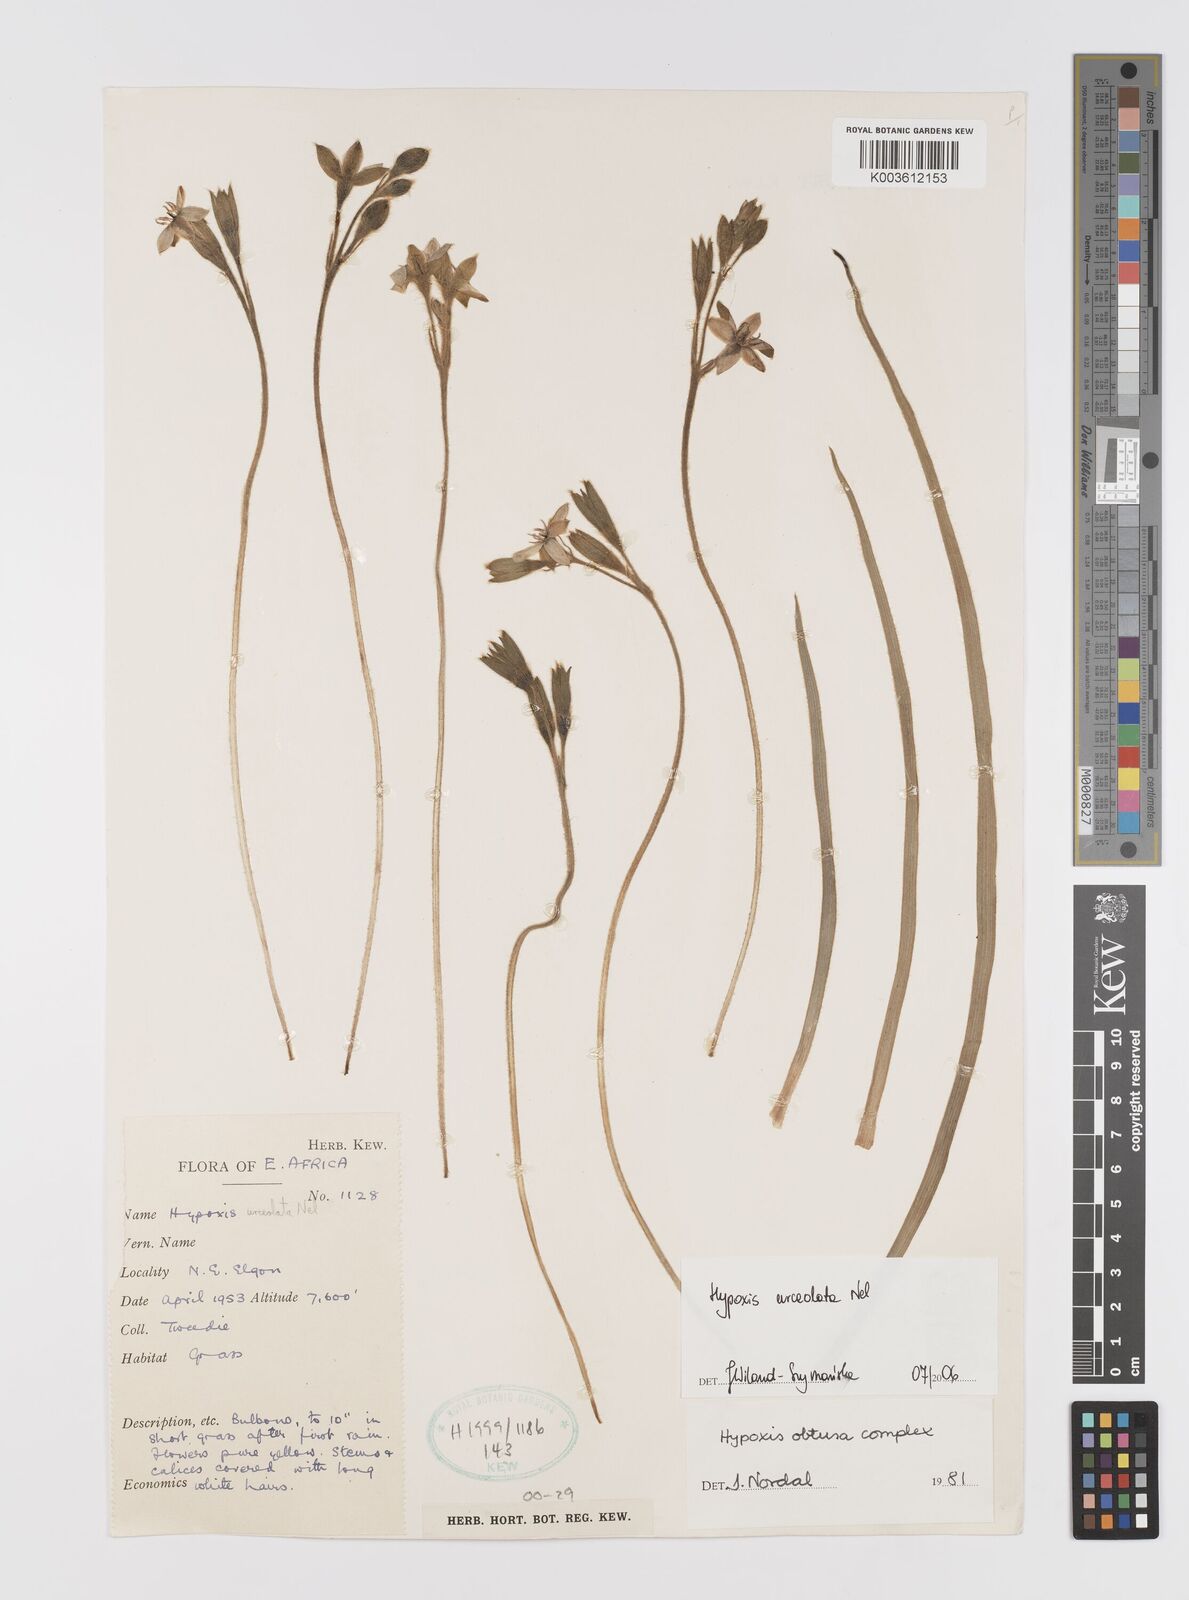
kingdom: Plantae
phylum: Tracheophyta
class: Liliopsida
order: Asparagales
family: Hypoxidaceae
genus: Hypoxis
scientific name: Hypoxis urceolata
